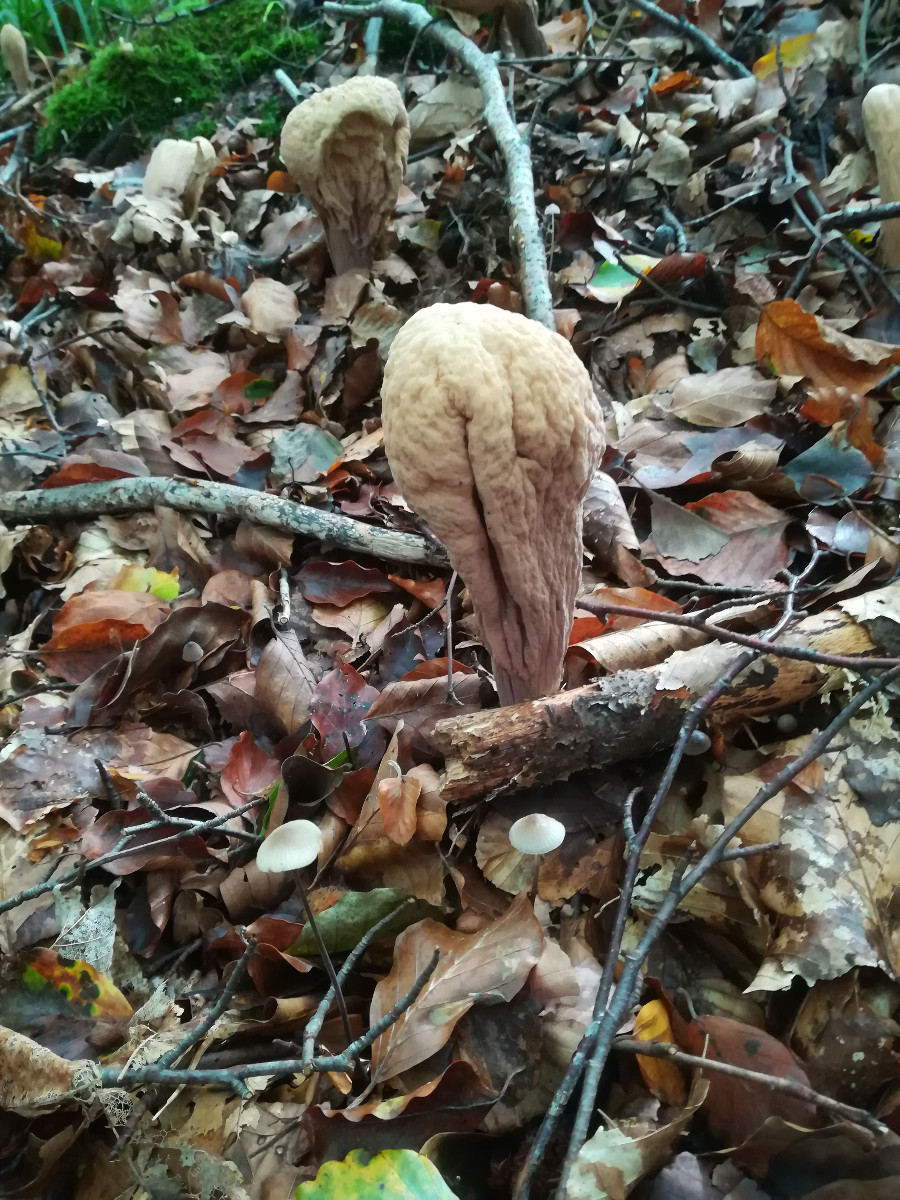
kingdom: Fungi
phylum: Basidiomycota
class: Agaricomycetes
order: Gomphales
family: Clavariadelphaceae
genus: Clavariadelphus
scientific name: Clavariadelphus pistillaris
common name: herkules-kæmpekølle
